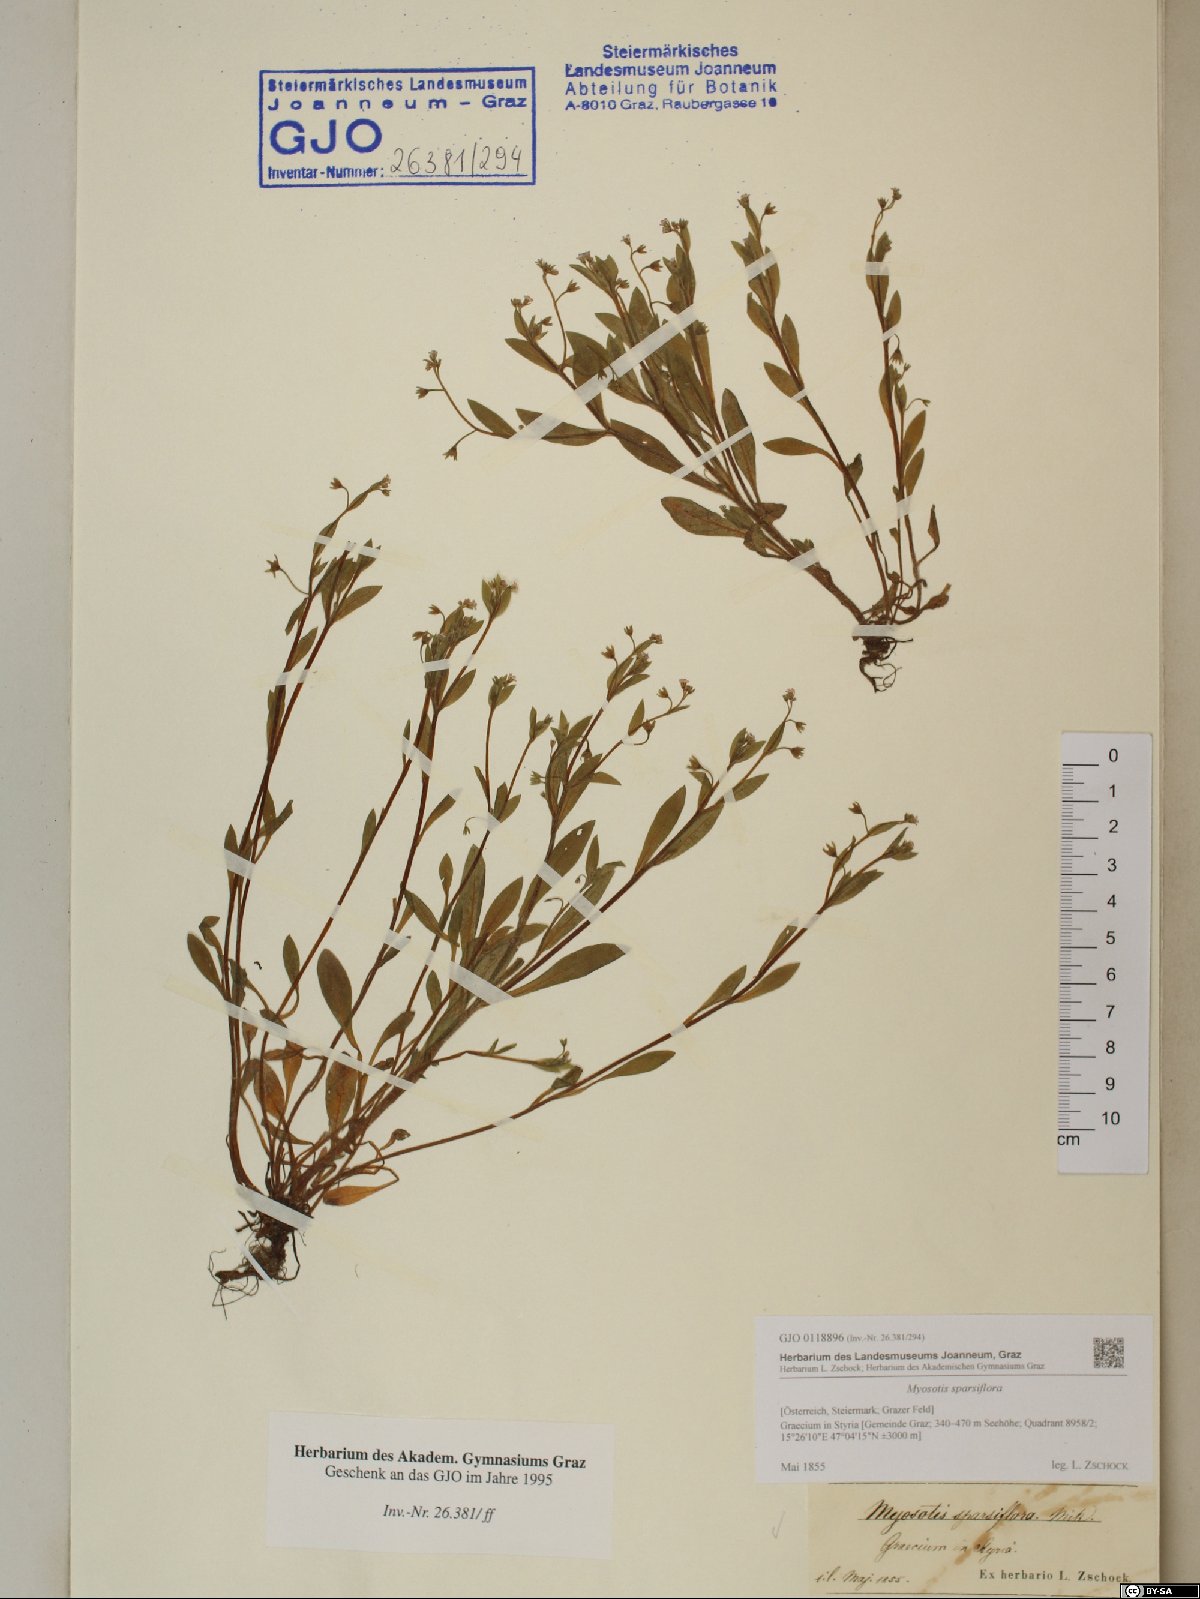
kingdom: Plantae
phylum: Tracheophyta
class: Magnoliopsida
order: Boraginales
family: Boraginaceae
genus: Myosotis
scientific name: Myosotis sparsiflora
